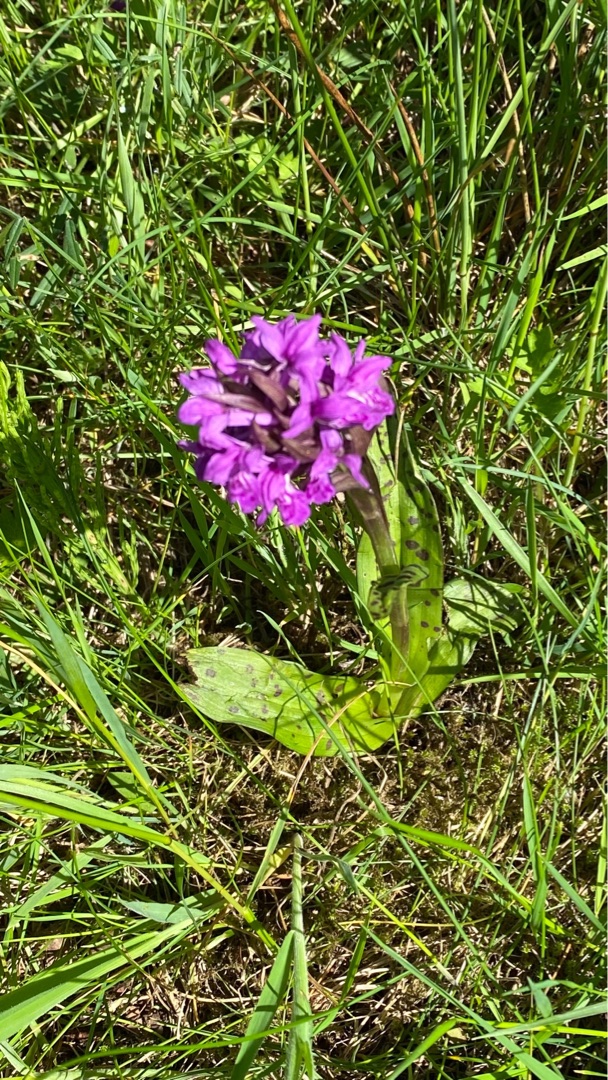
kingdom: Plantae
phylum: Tracheophyta
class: Liliopsida
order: Asparagales
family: Orchidaceae
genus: Dactylorhiza
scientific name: Dactylorhiza majalis
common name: Maj-gøgeurt
